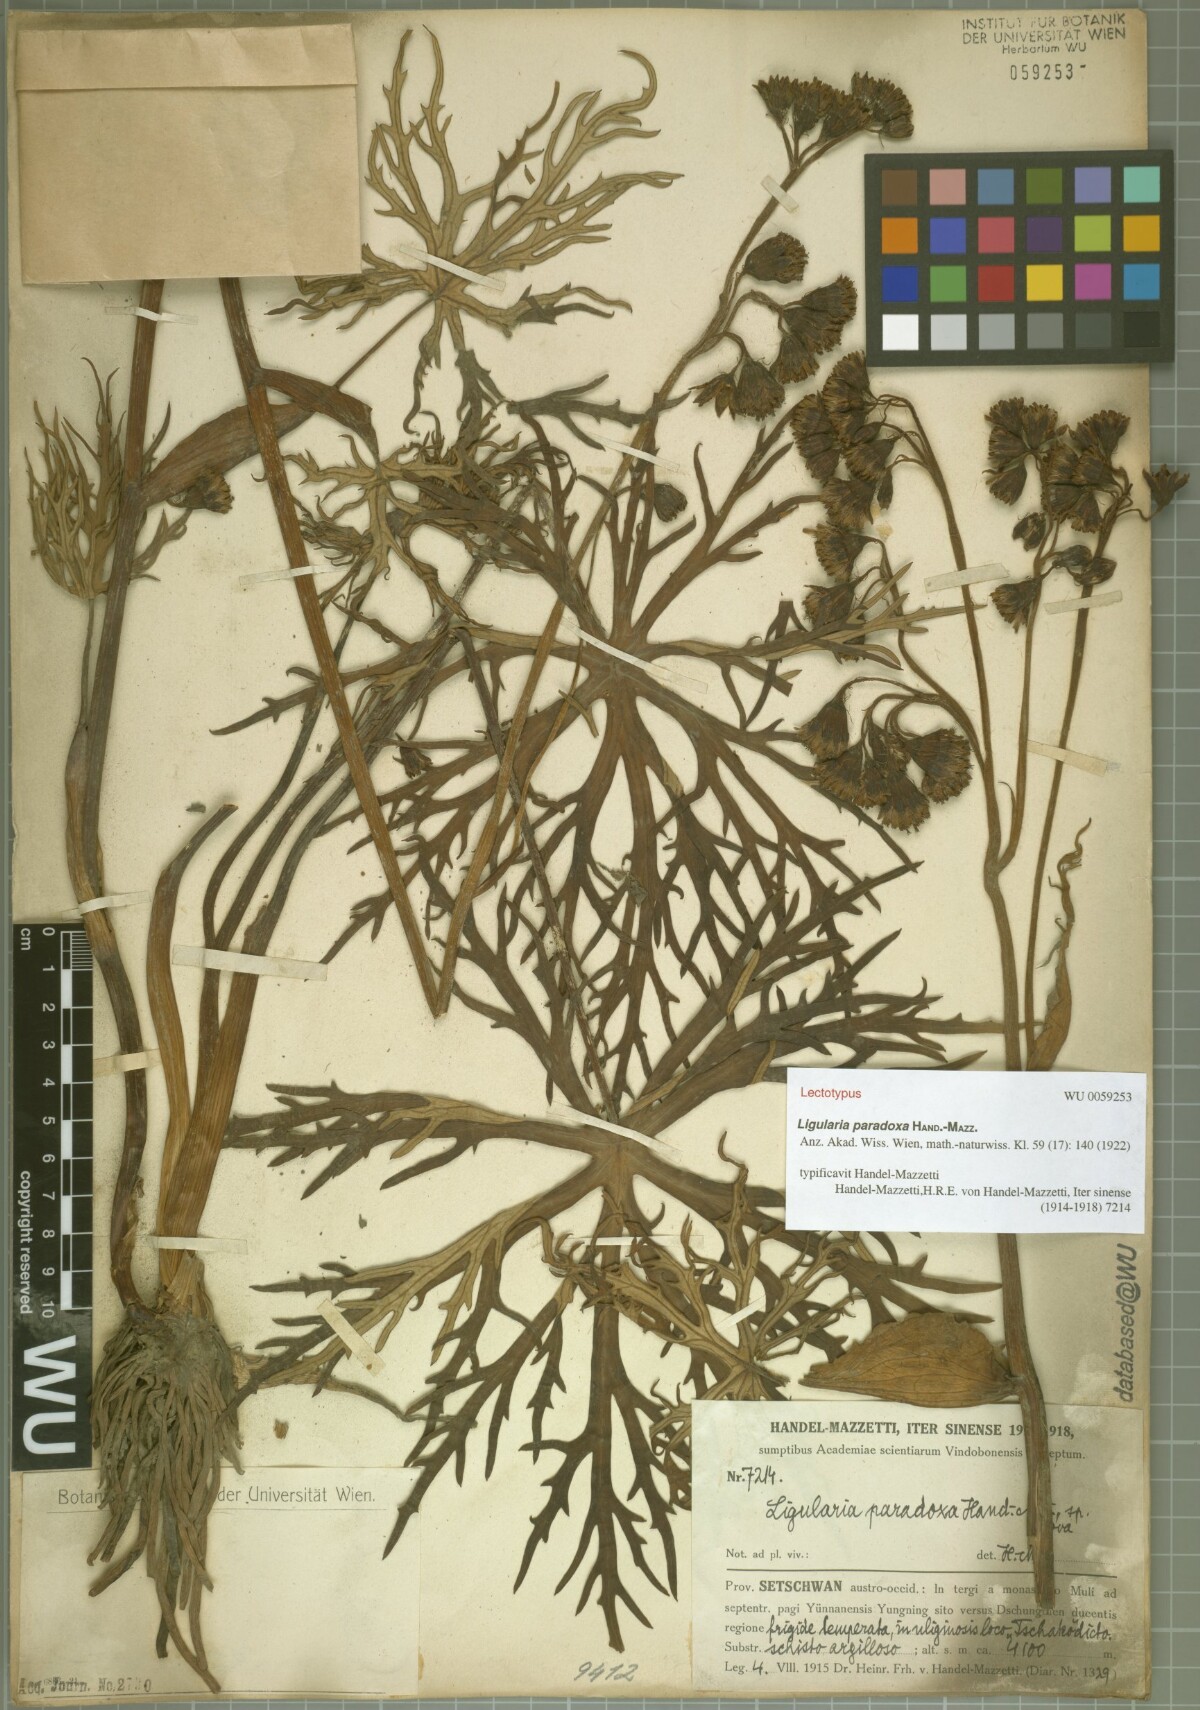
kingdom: Plantae
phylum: Tracheophyta
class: Magnoliopsida
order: Asterales
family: Asteraceae
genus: Ligularia
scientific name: Ligularia paradoxa
